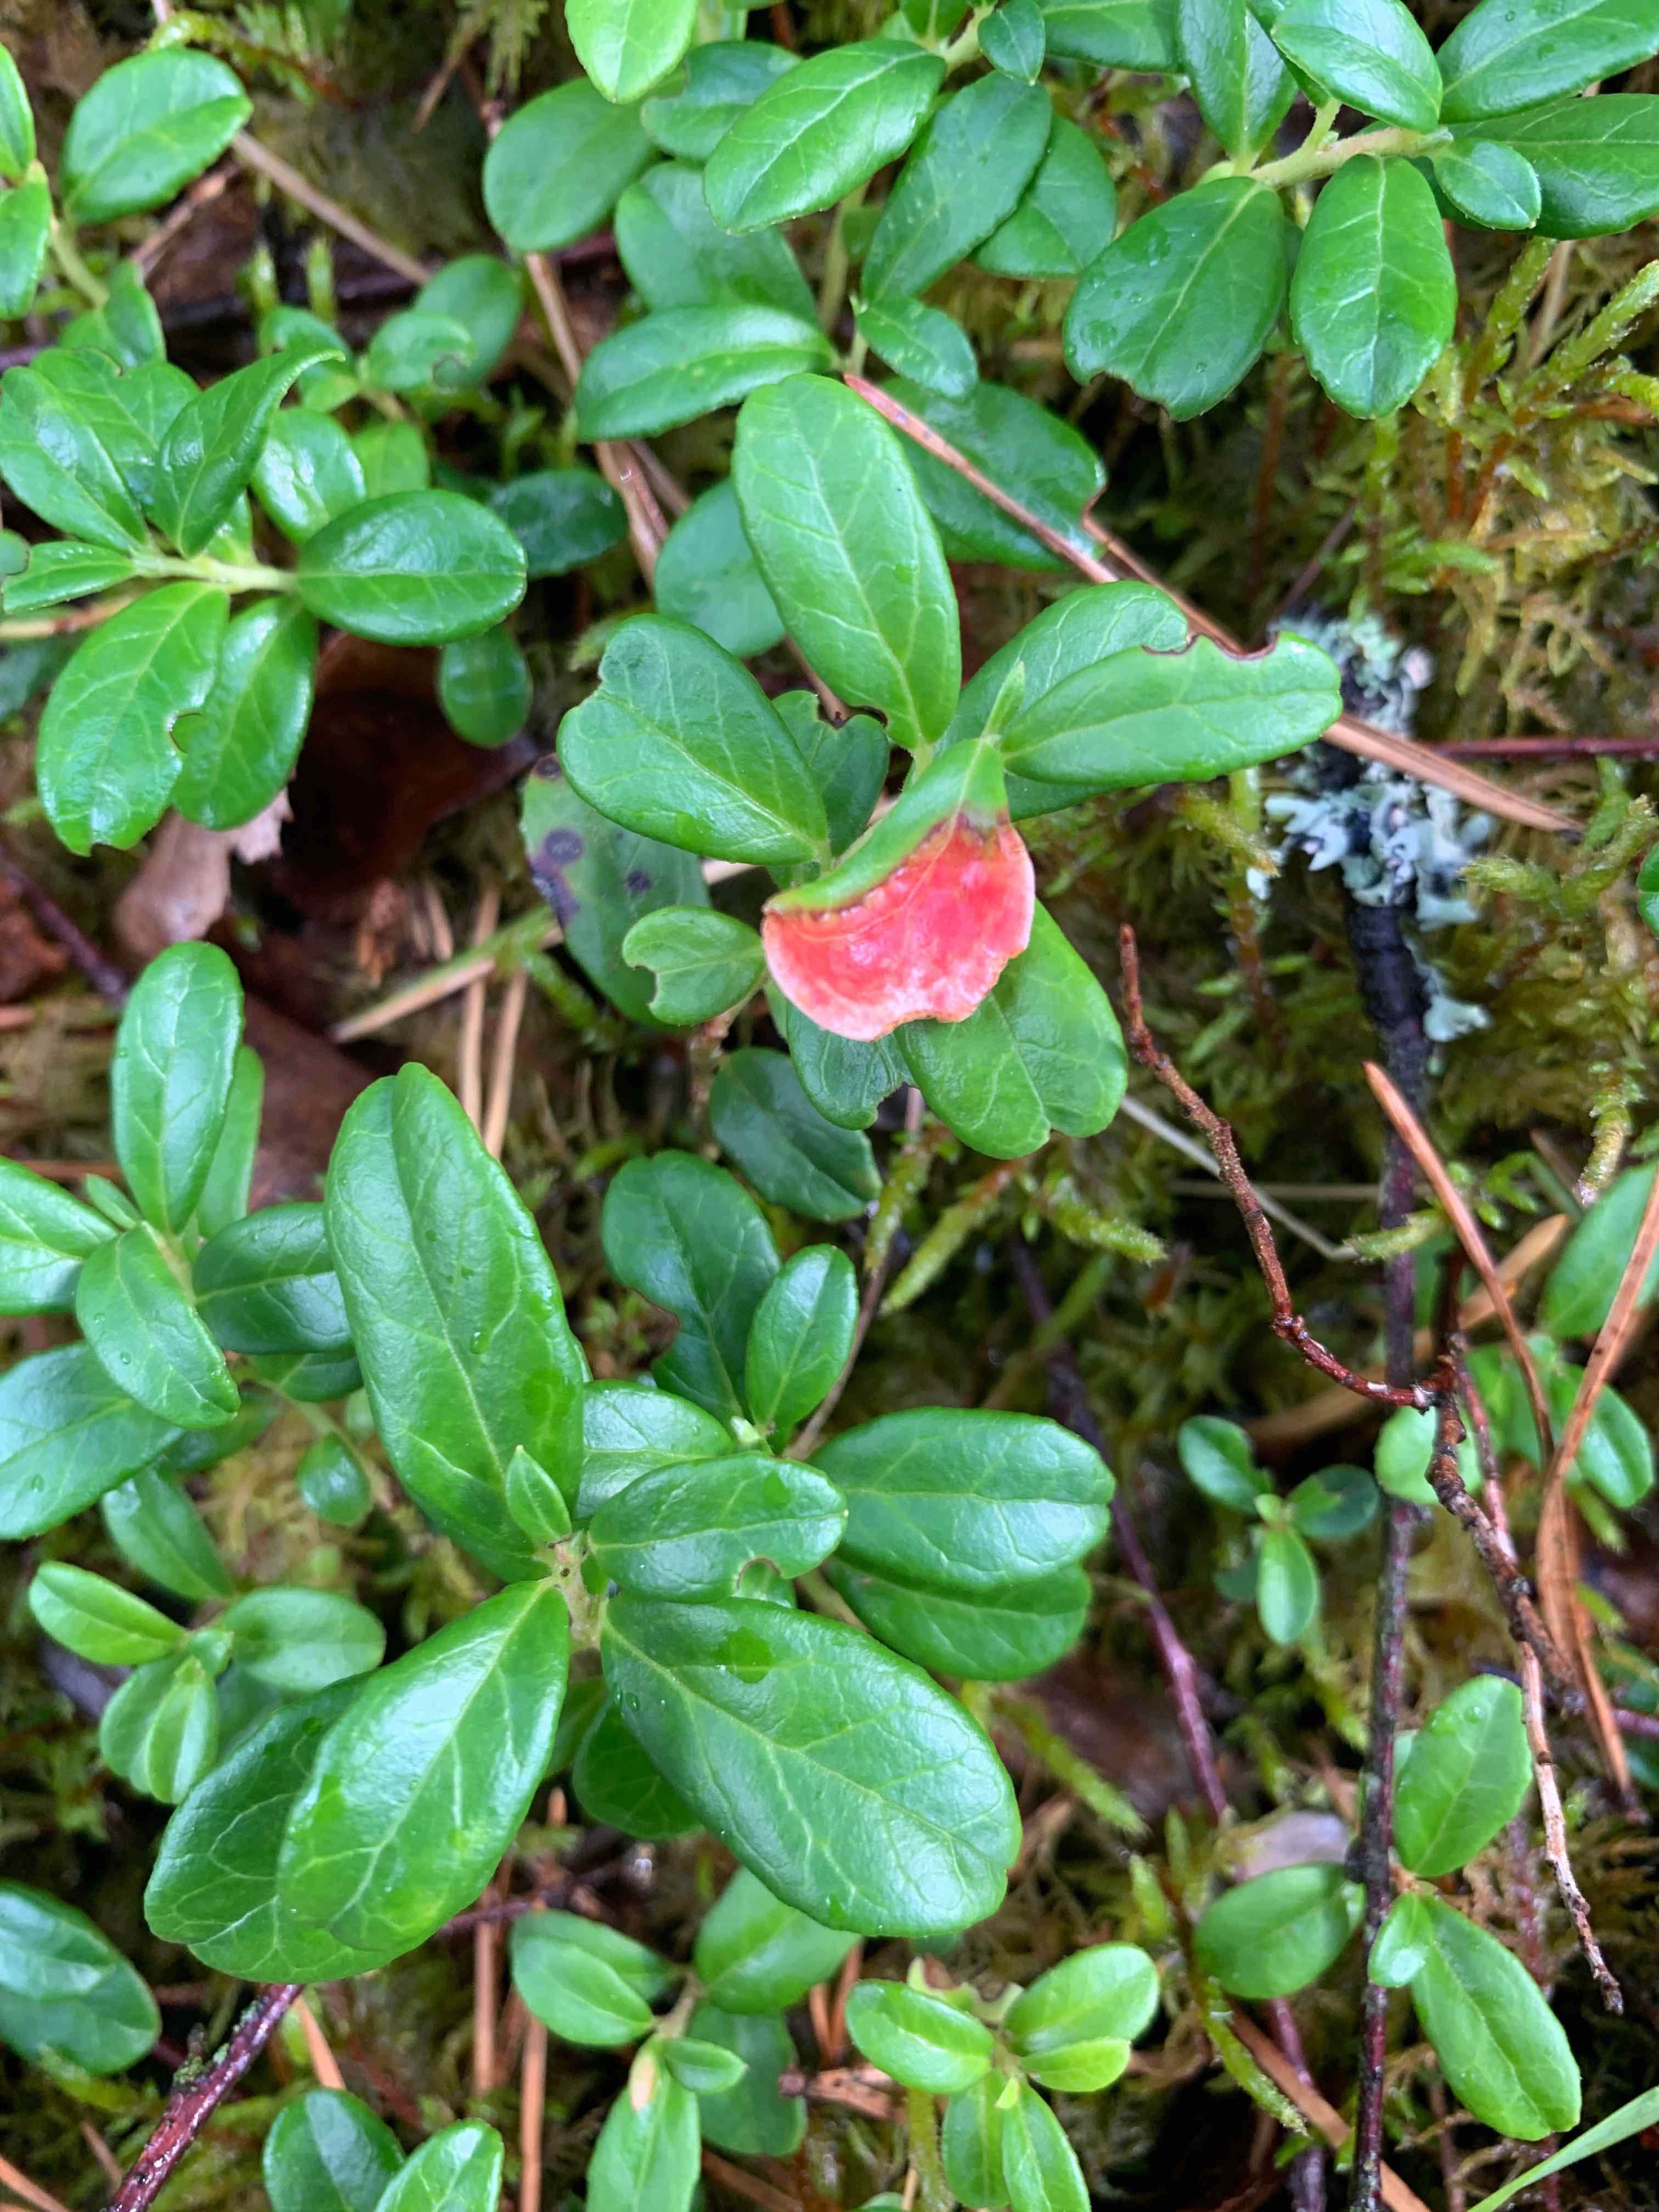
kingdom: Fungi
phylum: Basidiomycota
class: Exobasidiomycetes
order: Exobasidiales
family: Exobasidiaceae
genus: Exobasidium
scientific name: Exobasidium vaccinii
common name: tyttebærblad-bøllesvamp
